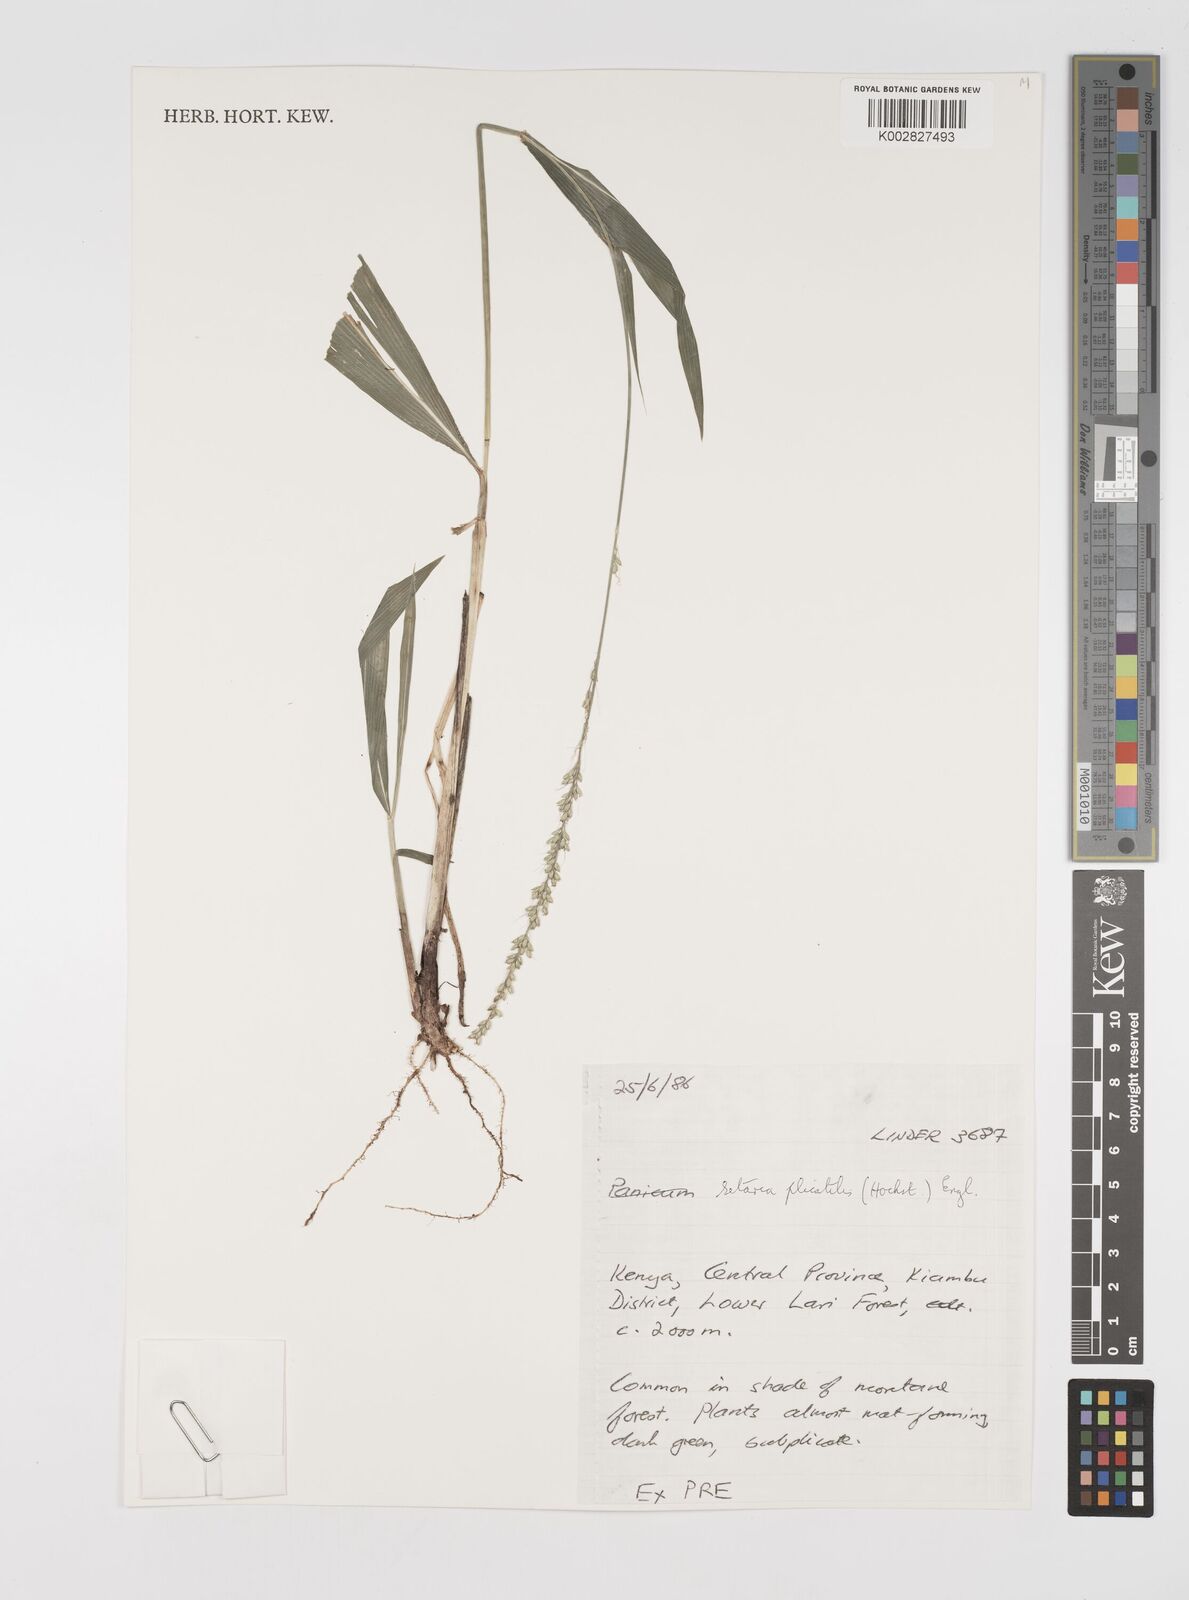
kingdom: Plantae
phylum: Tracheophyta
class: Liliopsida
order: Poales
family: Poaceae
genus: Setaria
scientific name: Setaria megaphylla
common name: Bigleaf bristlegrass
